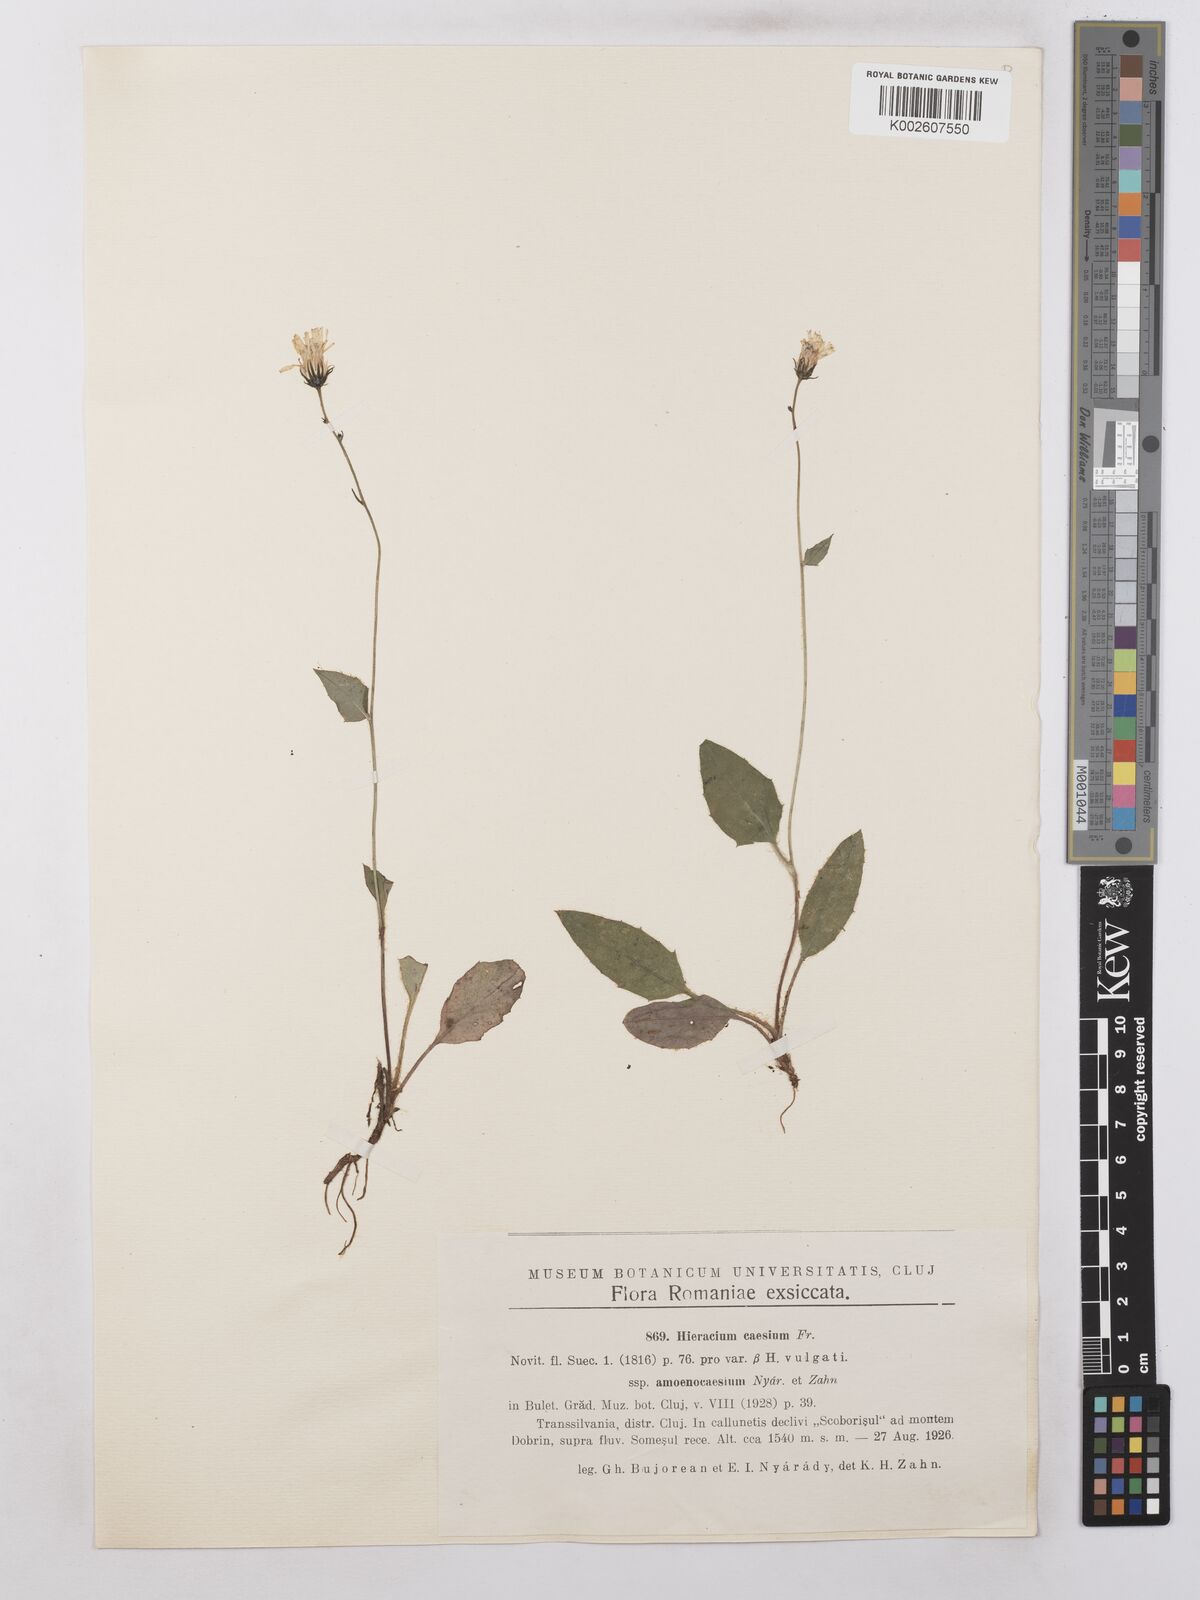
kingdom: Plantae
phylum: Tracheophyta
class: Magnoliopsida
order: Asterales
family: Asteraceae
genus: Hieracium
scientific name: Hieracium caesium
